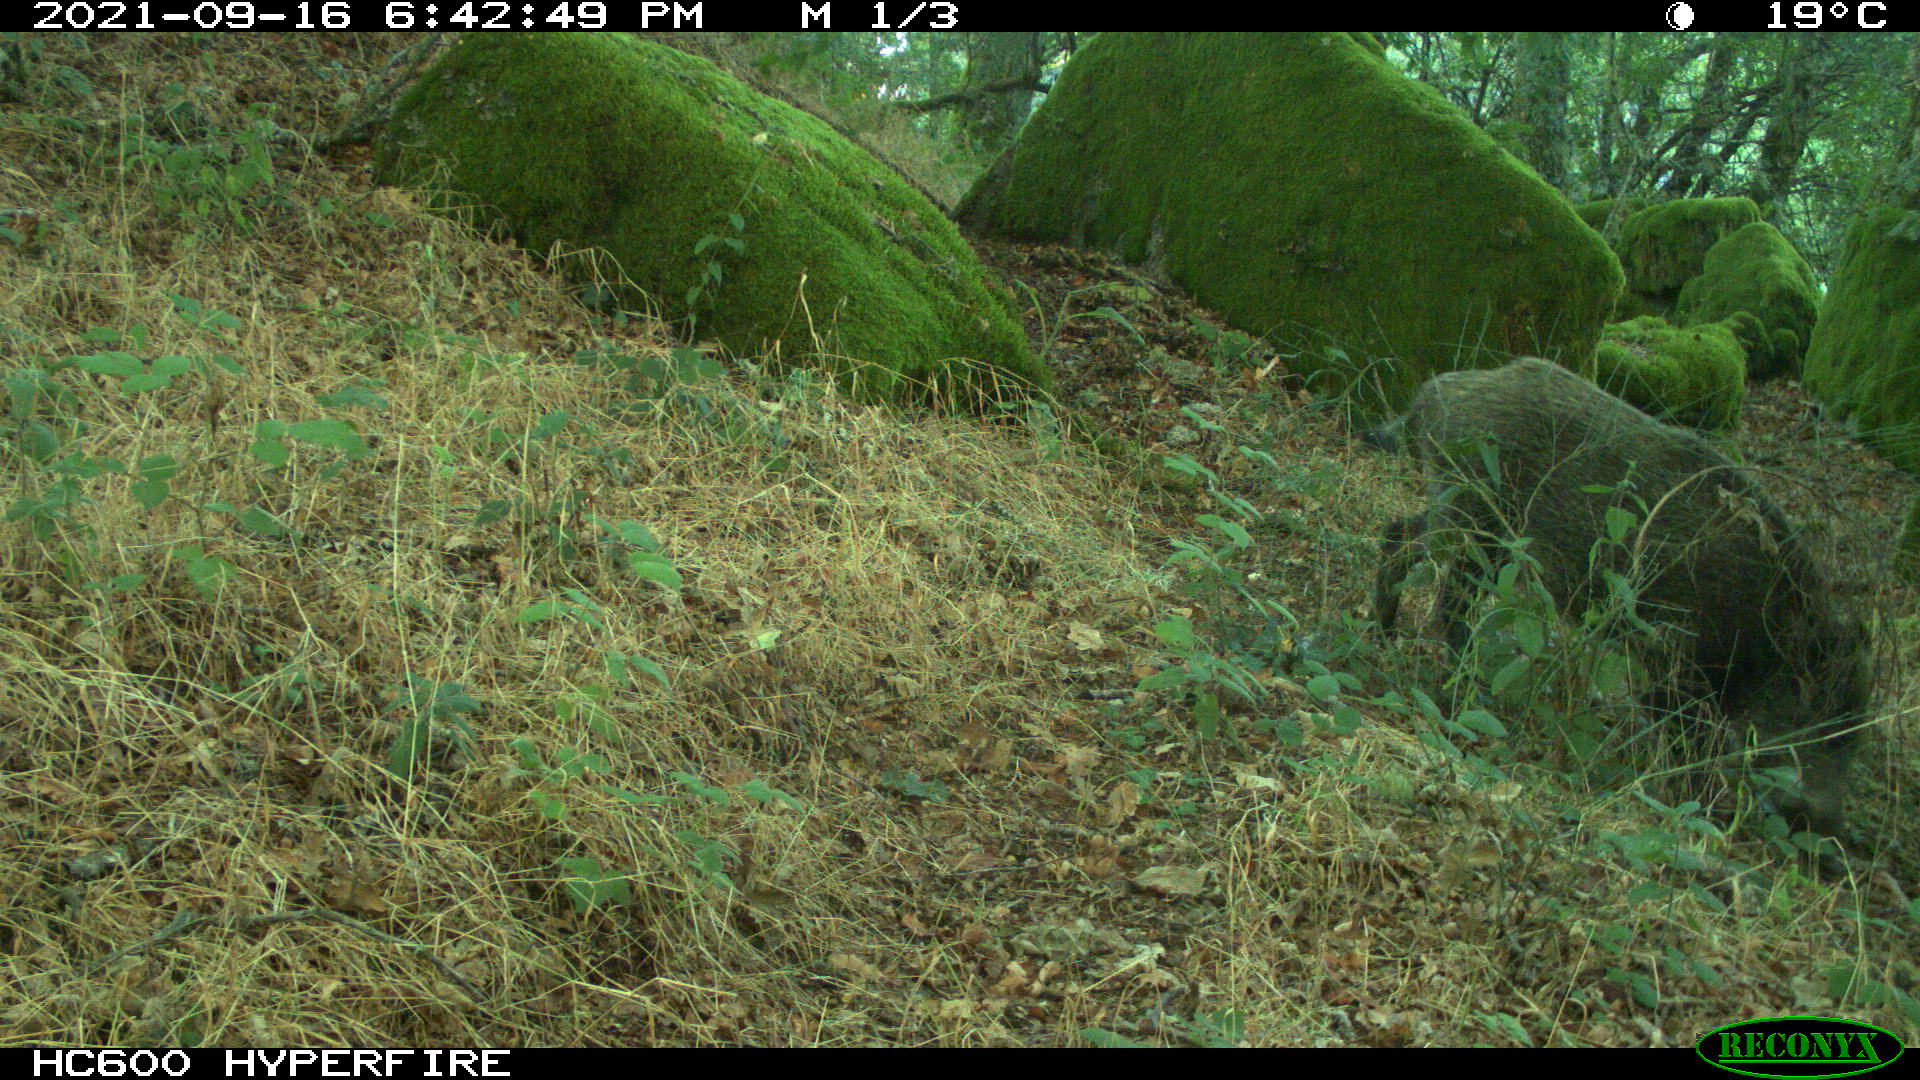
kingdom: Animalia
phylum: Chordata
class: Mammalia
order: Artiodactyla
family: Suidae
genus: Sus
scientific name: Sus scrofa
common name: Wild boar
